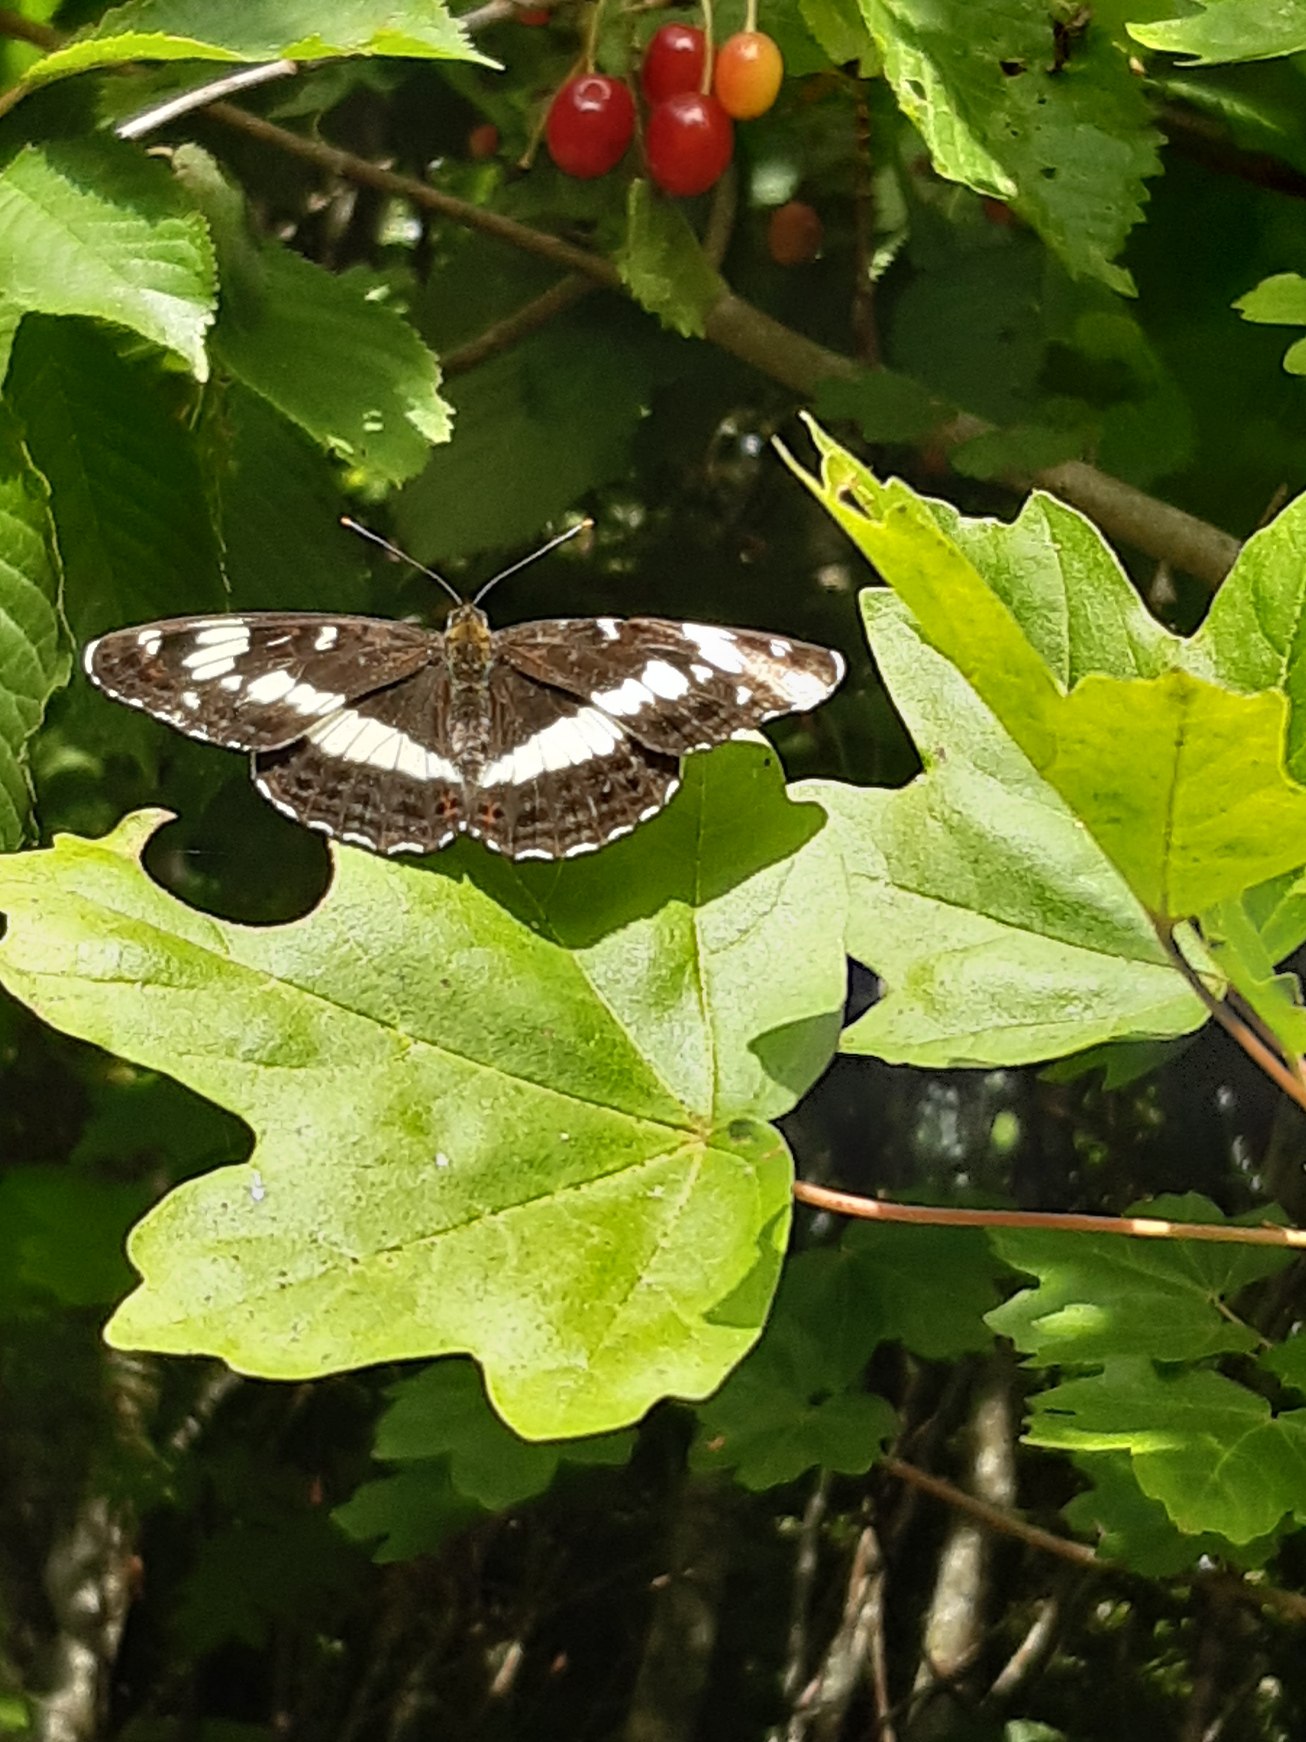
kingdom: Animalia
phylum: Arthropoda
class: Insecta
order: Lepidoptera
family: Nymphalidae
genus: Ladoga
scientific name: Ladoga camilla
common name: Hvid admiral
